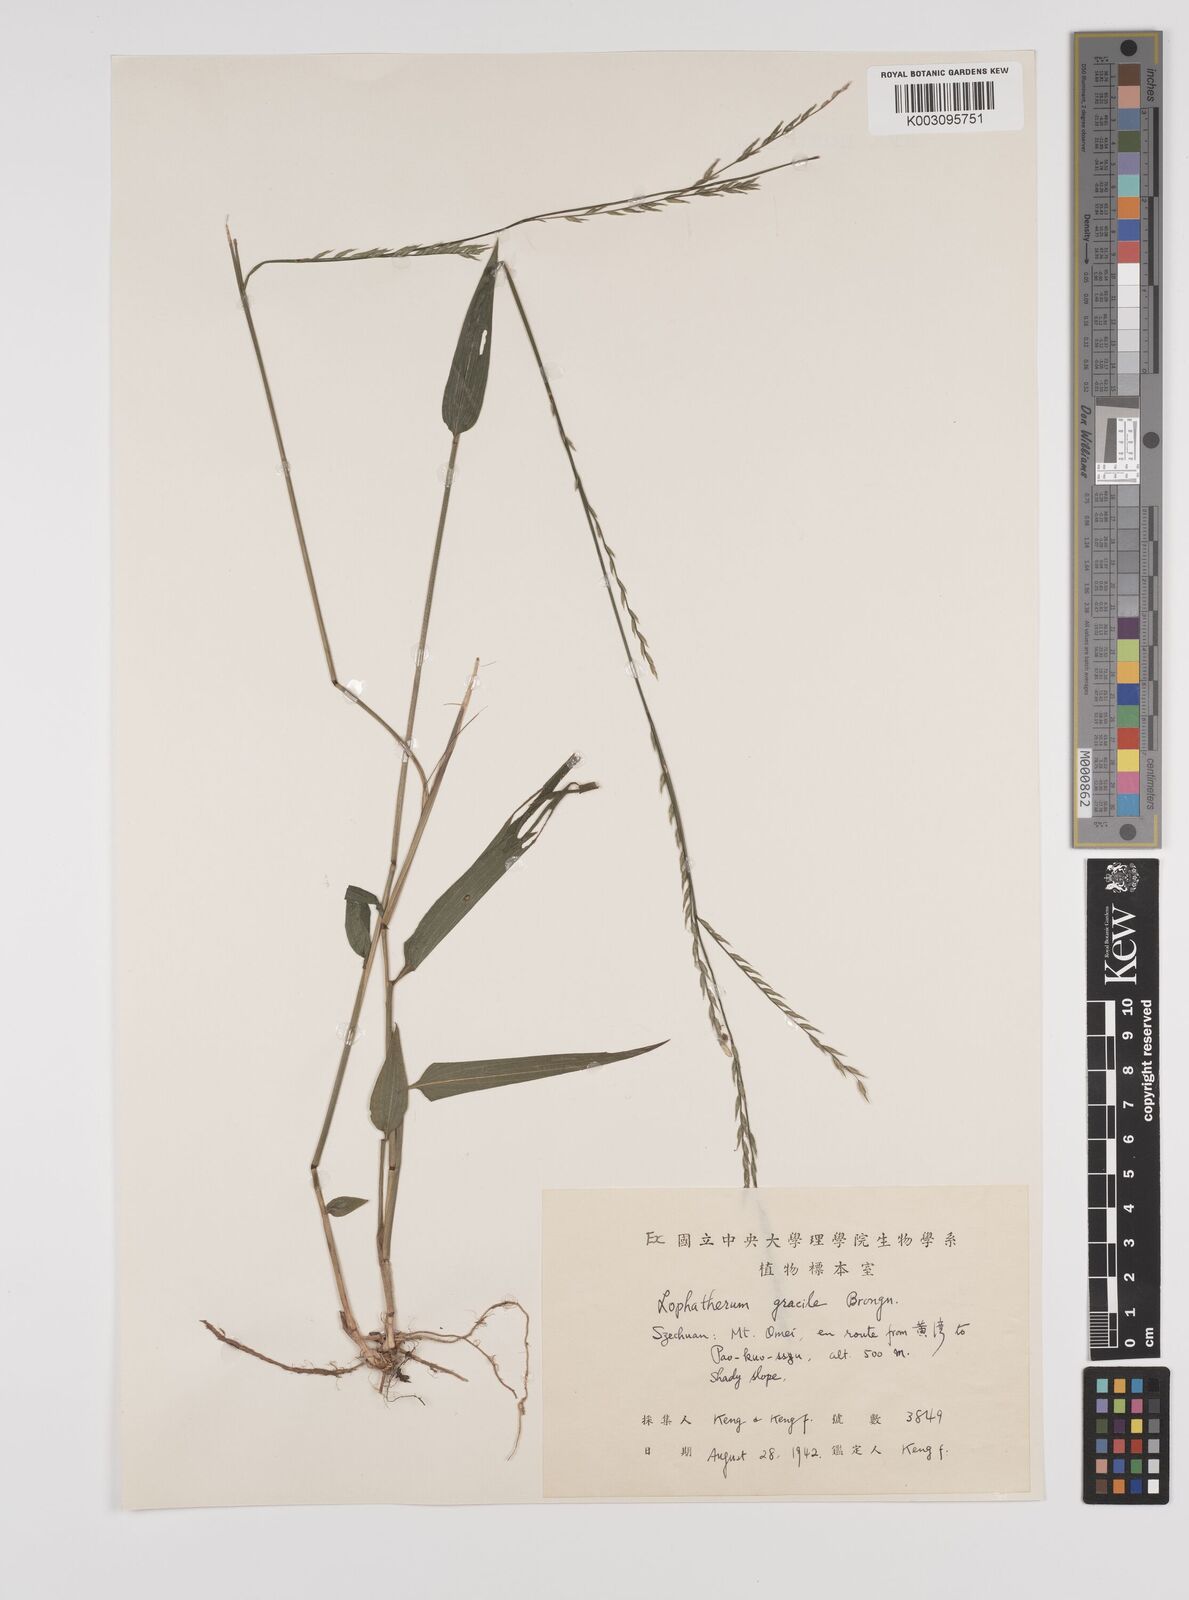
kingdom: Plantae
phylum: Tracheophyta
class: Liliopsida
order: Poales
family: Poaceae
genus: Lophatherum
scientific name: Lophatherum gracile
